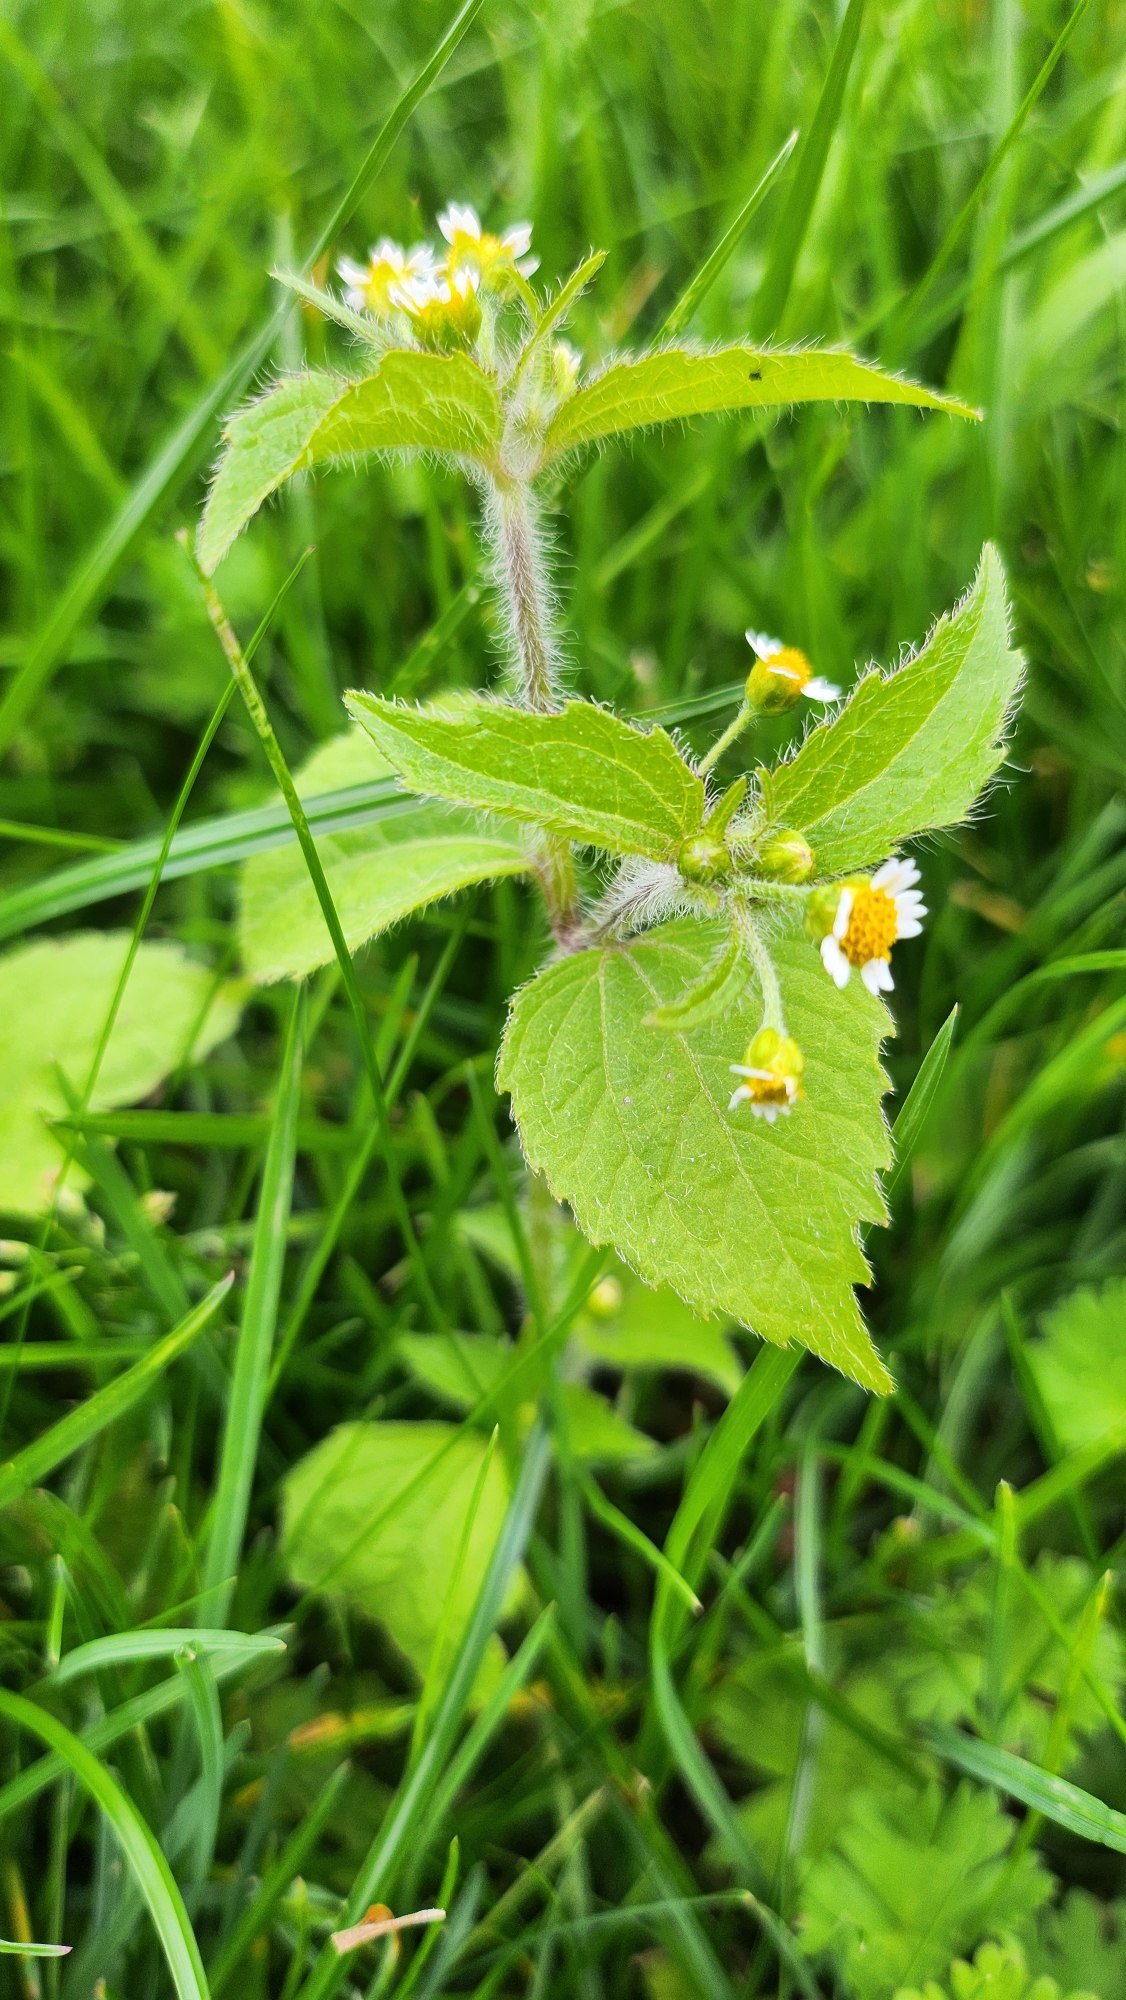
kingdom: Plantae
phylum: Tracheophyta
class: Magnoliopsida
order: Asterales
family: Asteraceae
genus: Galinsoga
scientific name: Galinsoga quadriradiata
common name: Kirtel-kortstråle
